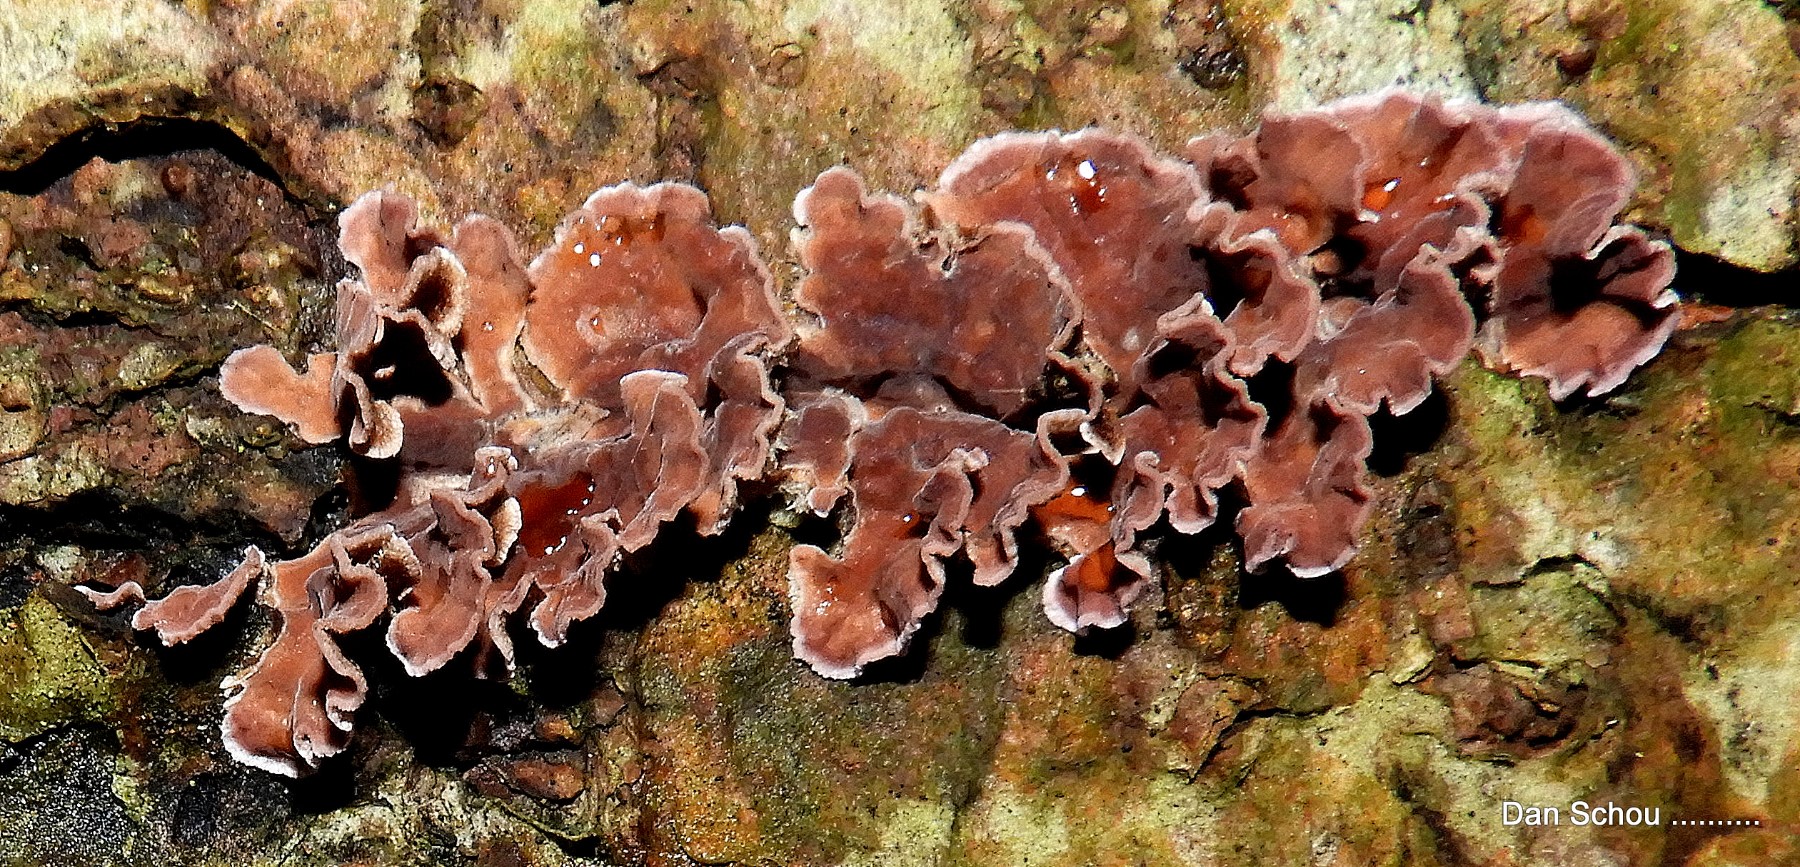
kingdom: Fungi
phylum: Basidiomycota
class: Agaricomycetes
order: Agaricales
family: Cyphellaceae
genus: Chondrostereum
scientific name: Chondrostereum purpureum
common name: purpurlædersvamp
